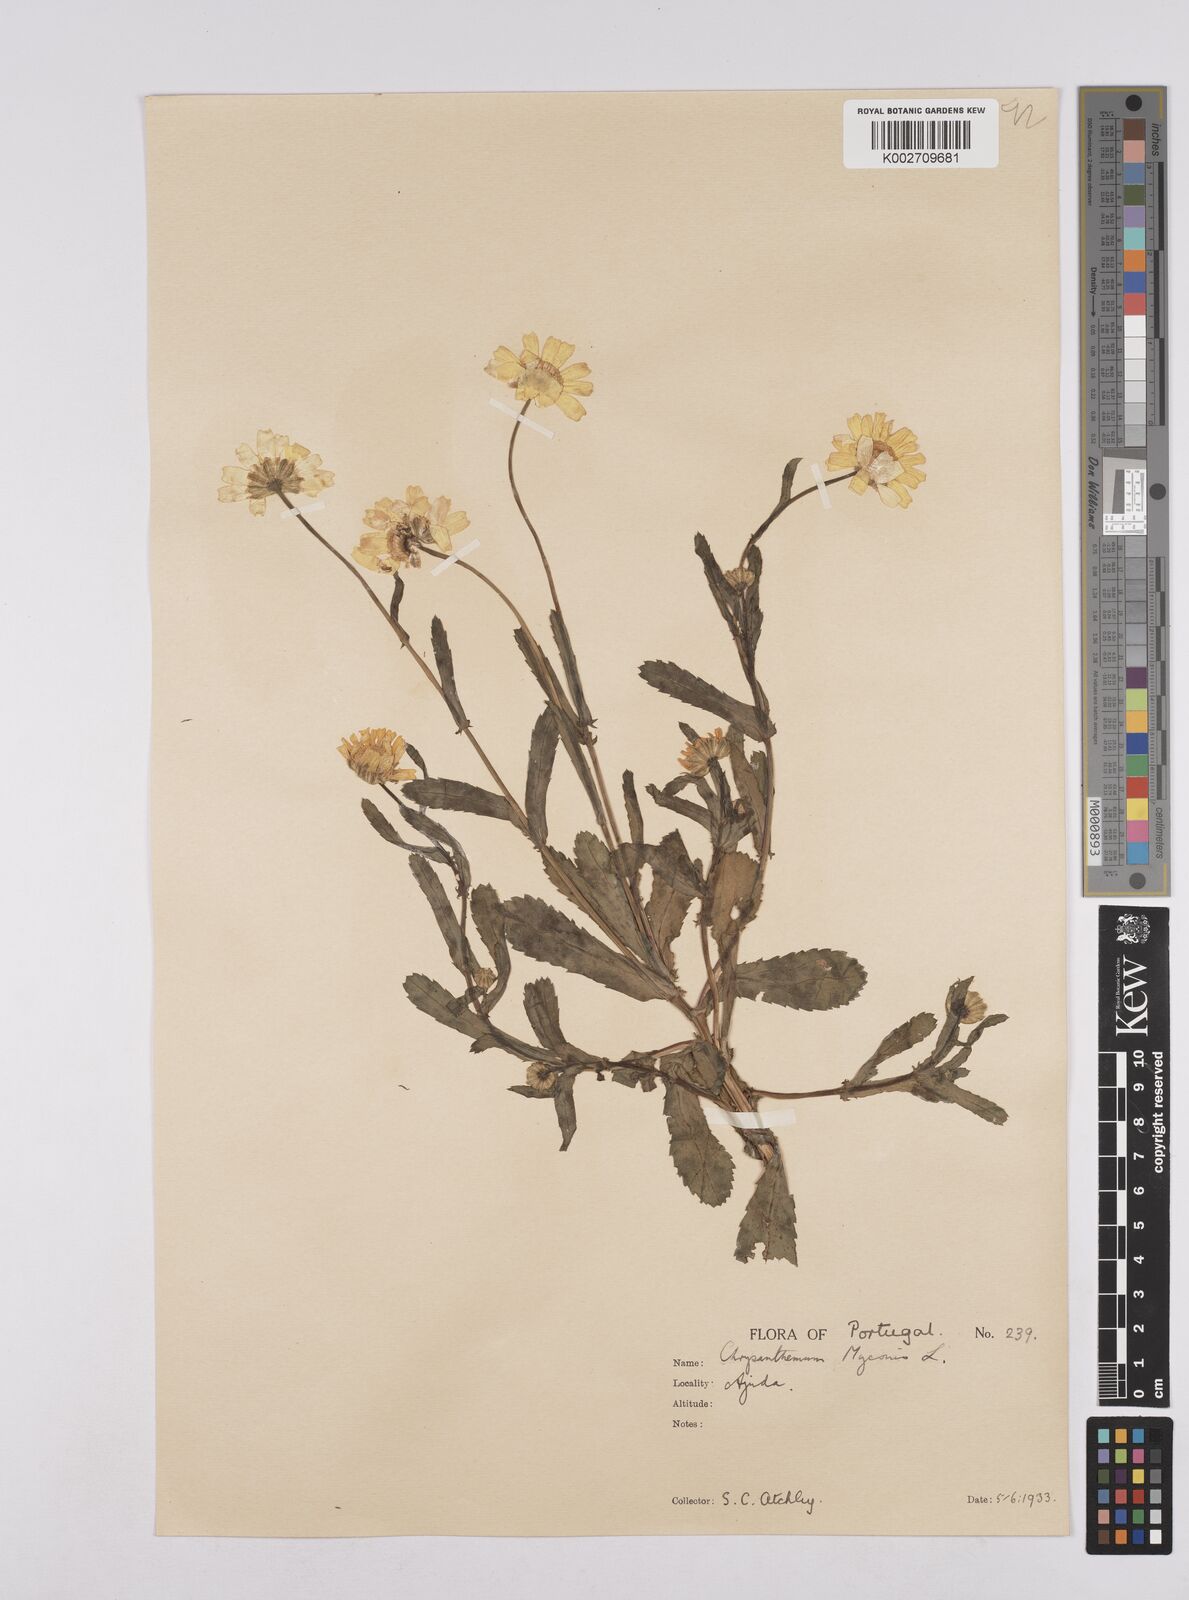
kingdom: Plantae
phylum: Tracheophyta
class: Magnoliopsida
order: Asterales
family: Asteraceae
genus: Coleostephus
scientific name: Coleostephus myconis
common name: Mediterranean marigold
